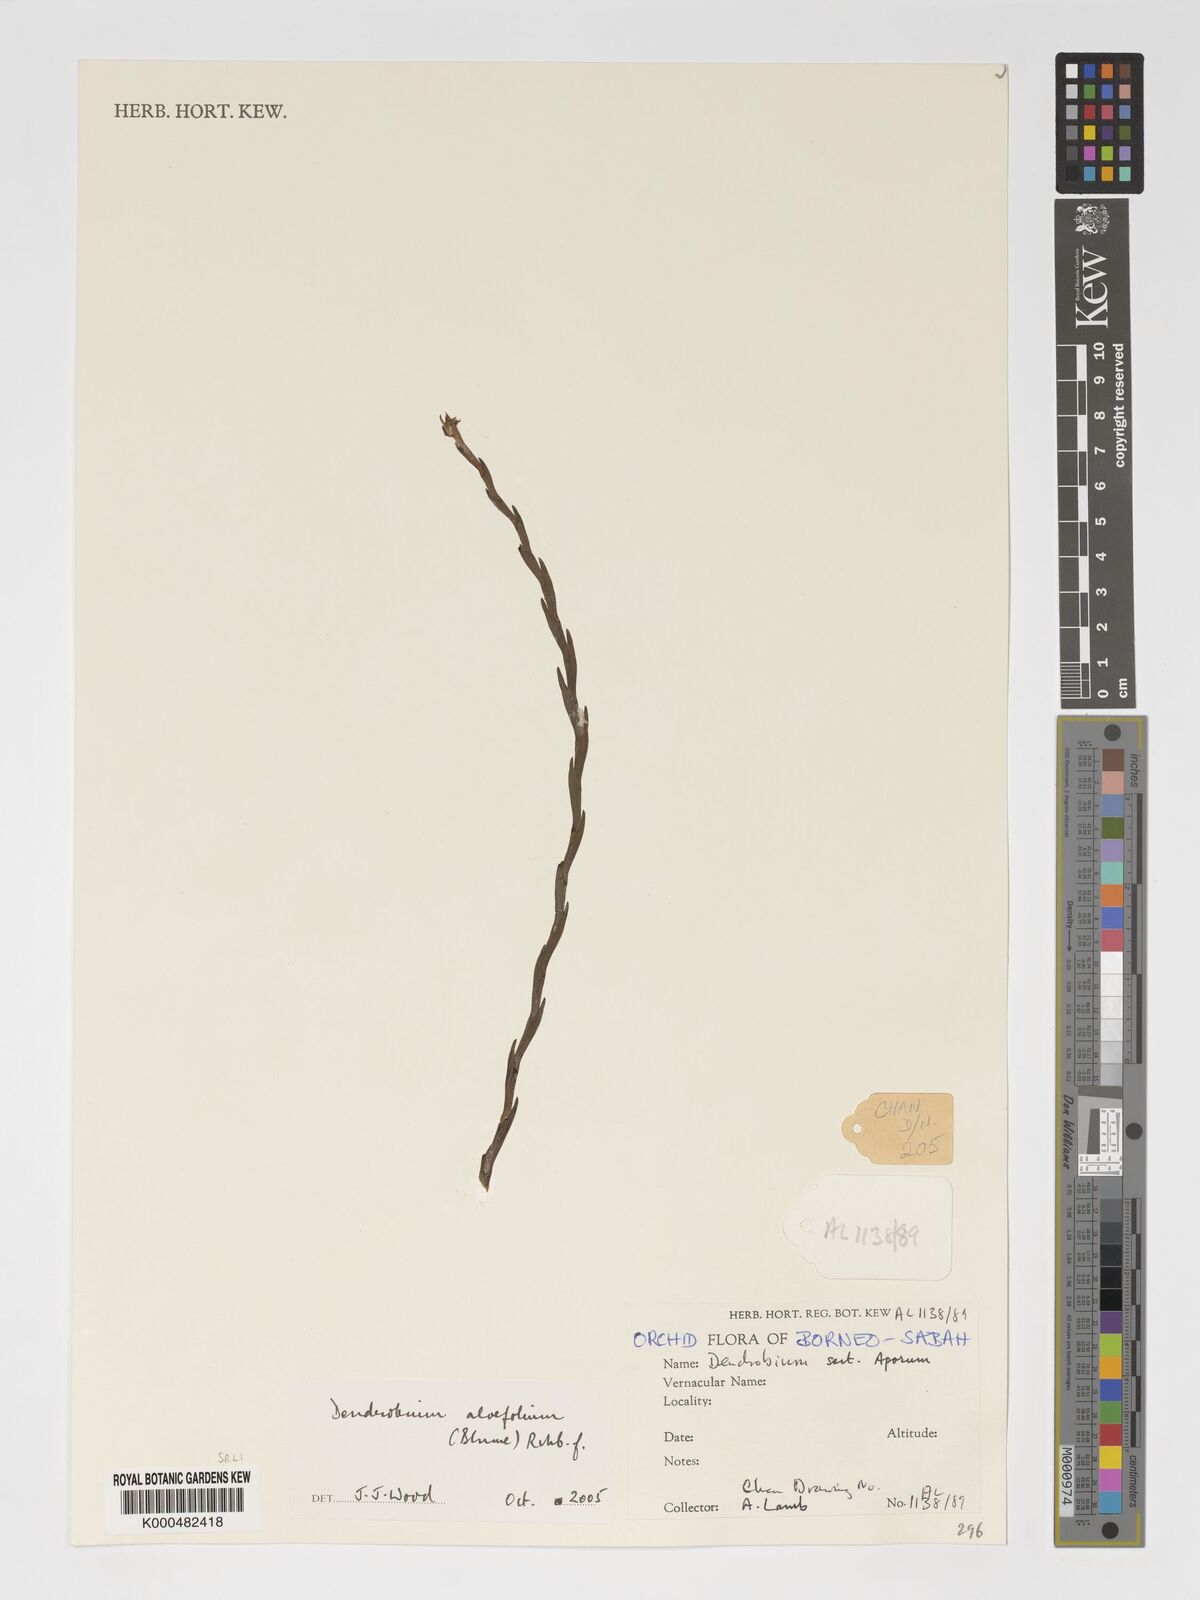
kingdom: Plantae
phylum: Tracheophyta
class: Liliopsida
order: Asparagales
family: Orchidaceae
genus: Dendrobium
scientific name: Dendrobium aloifolium
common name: Aloe-like dendrobium
